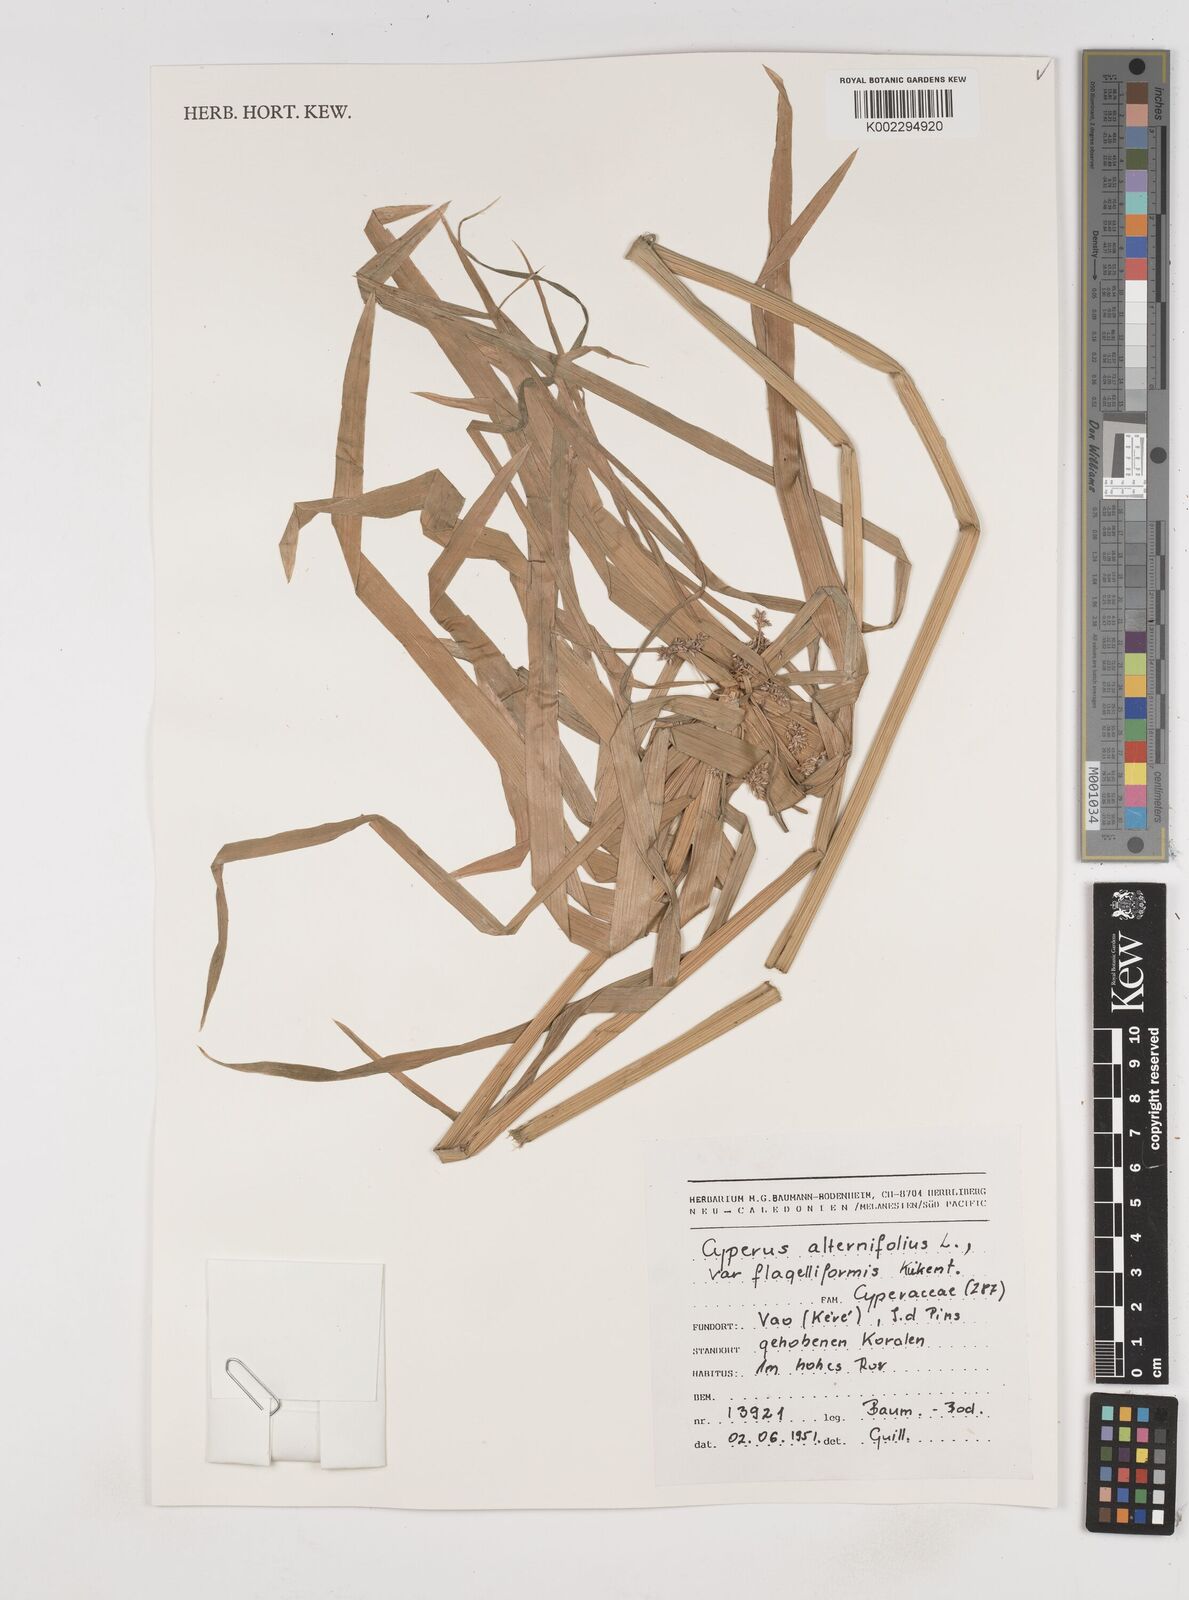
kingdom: Plantae
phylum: Tracheophyta
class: Liliopsida
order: Poales
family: Cyperaceae
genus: Cyperus
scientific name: Cyperus alternifolius
